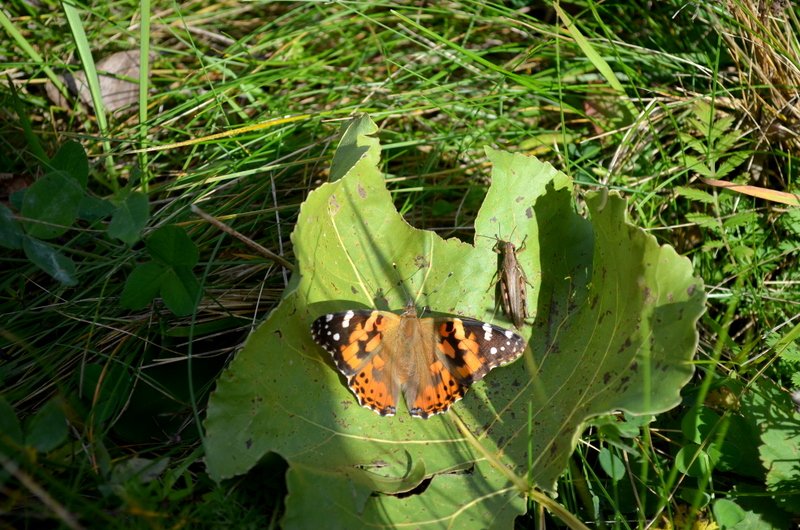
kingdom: Animalia
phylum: Arthropoda
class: Insecta
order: Lepidoptera
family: Nymphalidae
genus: Vanessa
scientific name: Vanessa cardui
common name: Painted Lady
